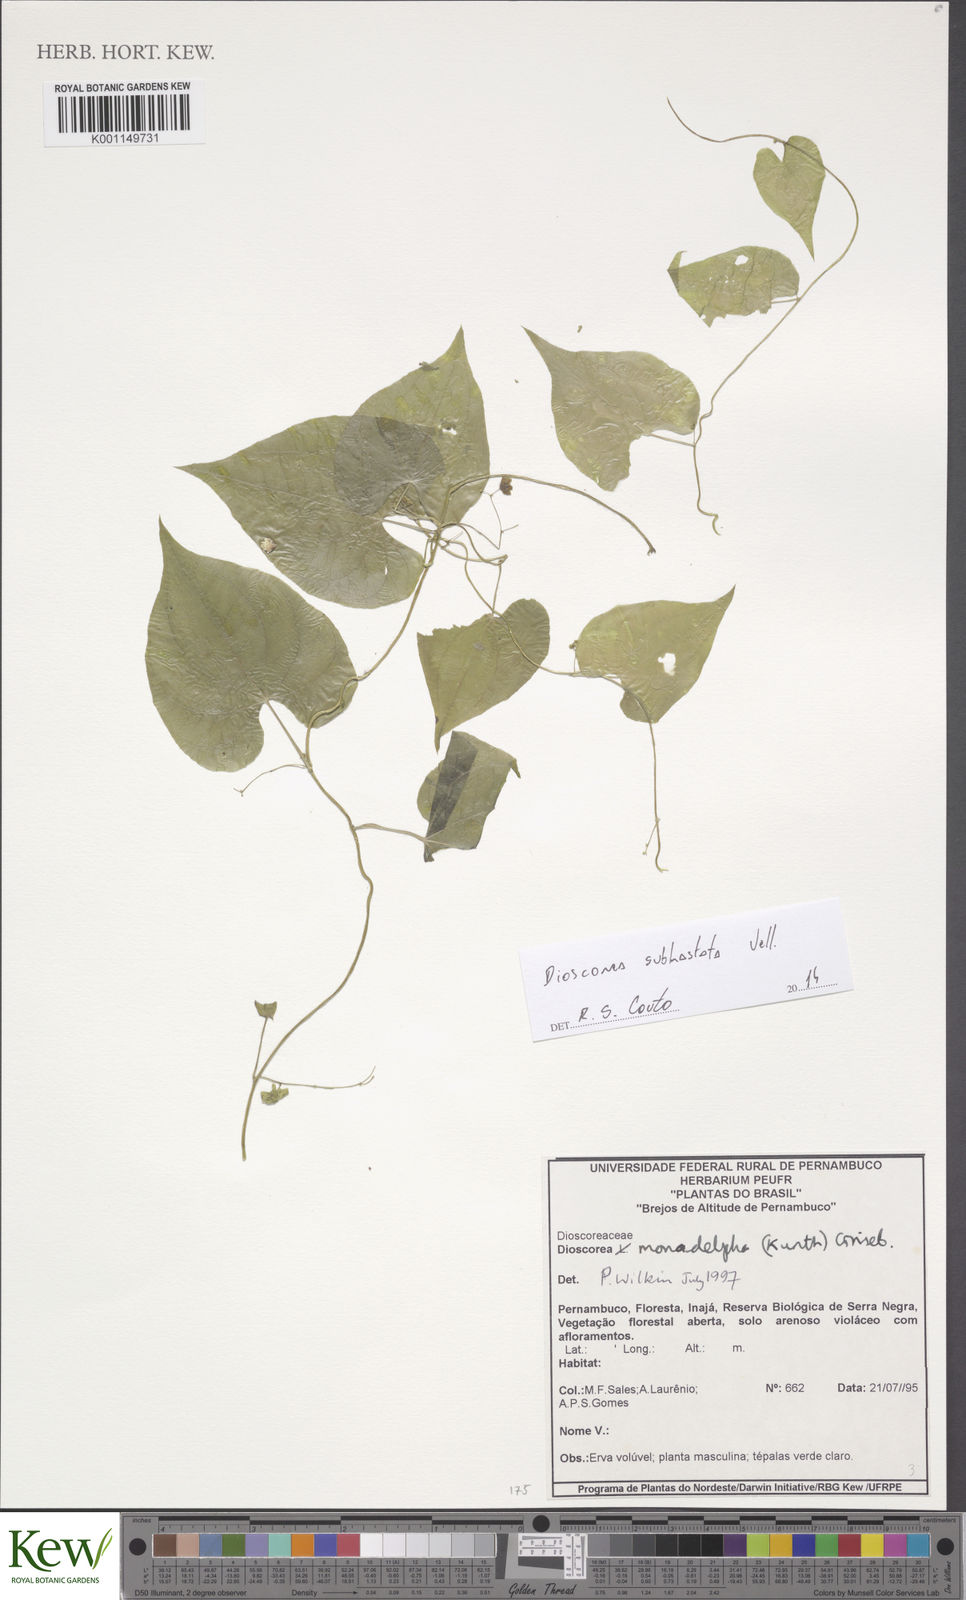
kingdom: Plantae
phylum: Tracheophyta
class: Liliopsida
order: Dioscoreales
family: Dioscoreaceae
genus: Dioscorea
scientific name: Dioscorea subhastata
